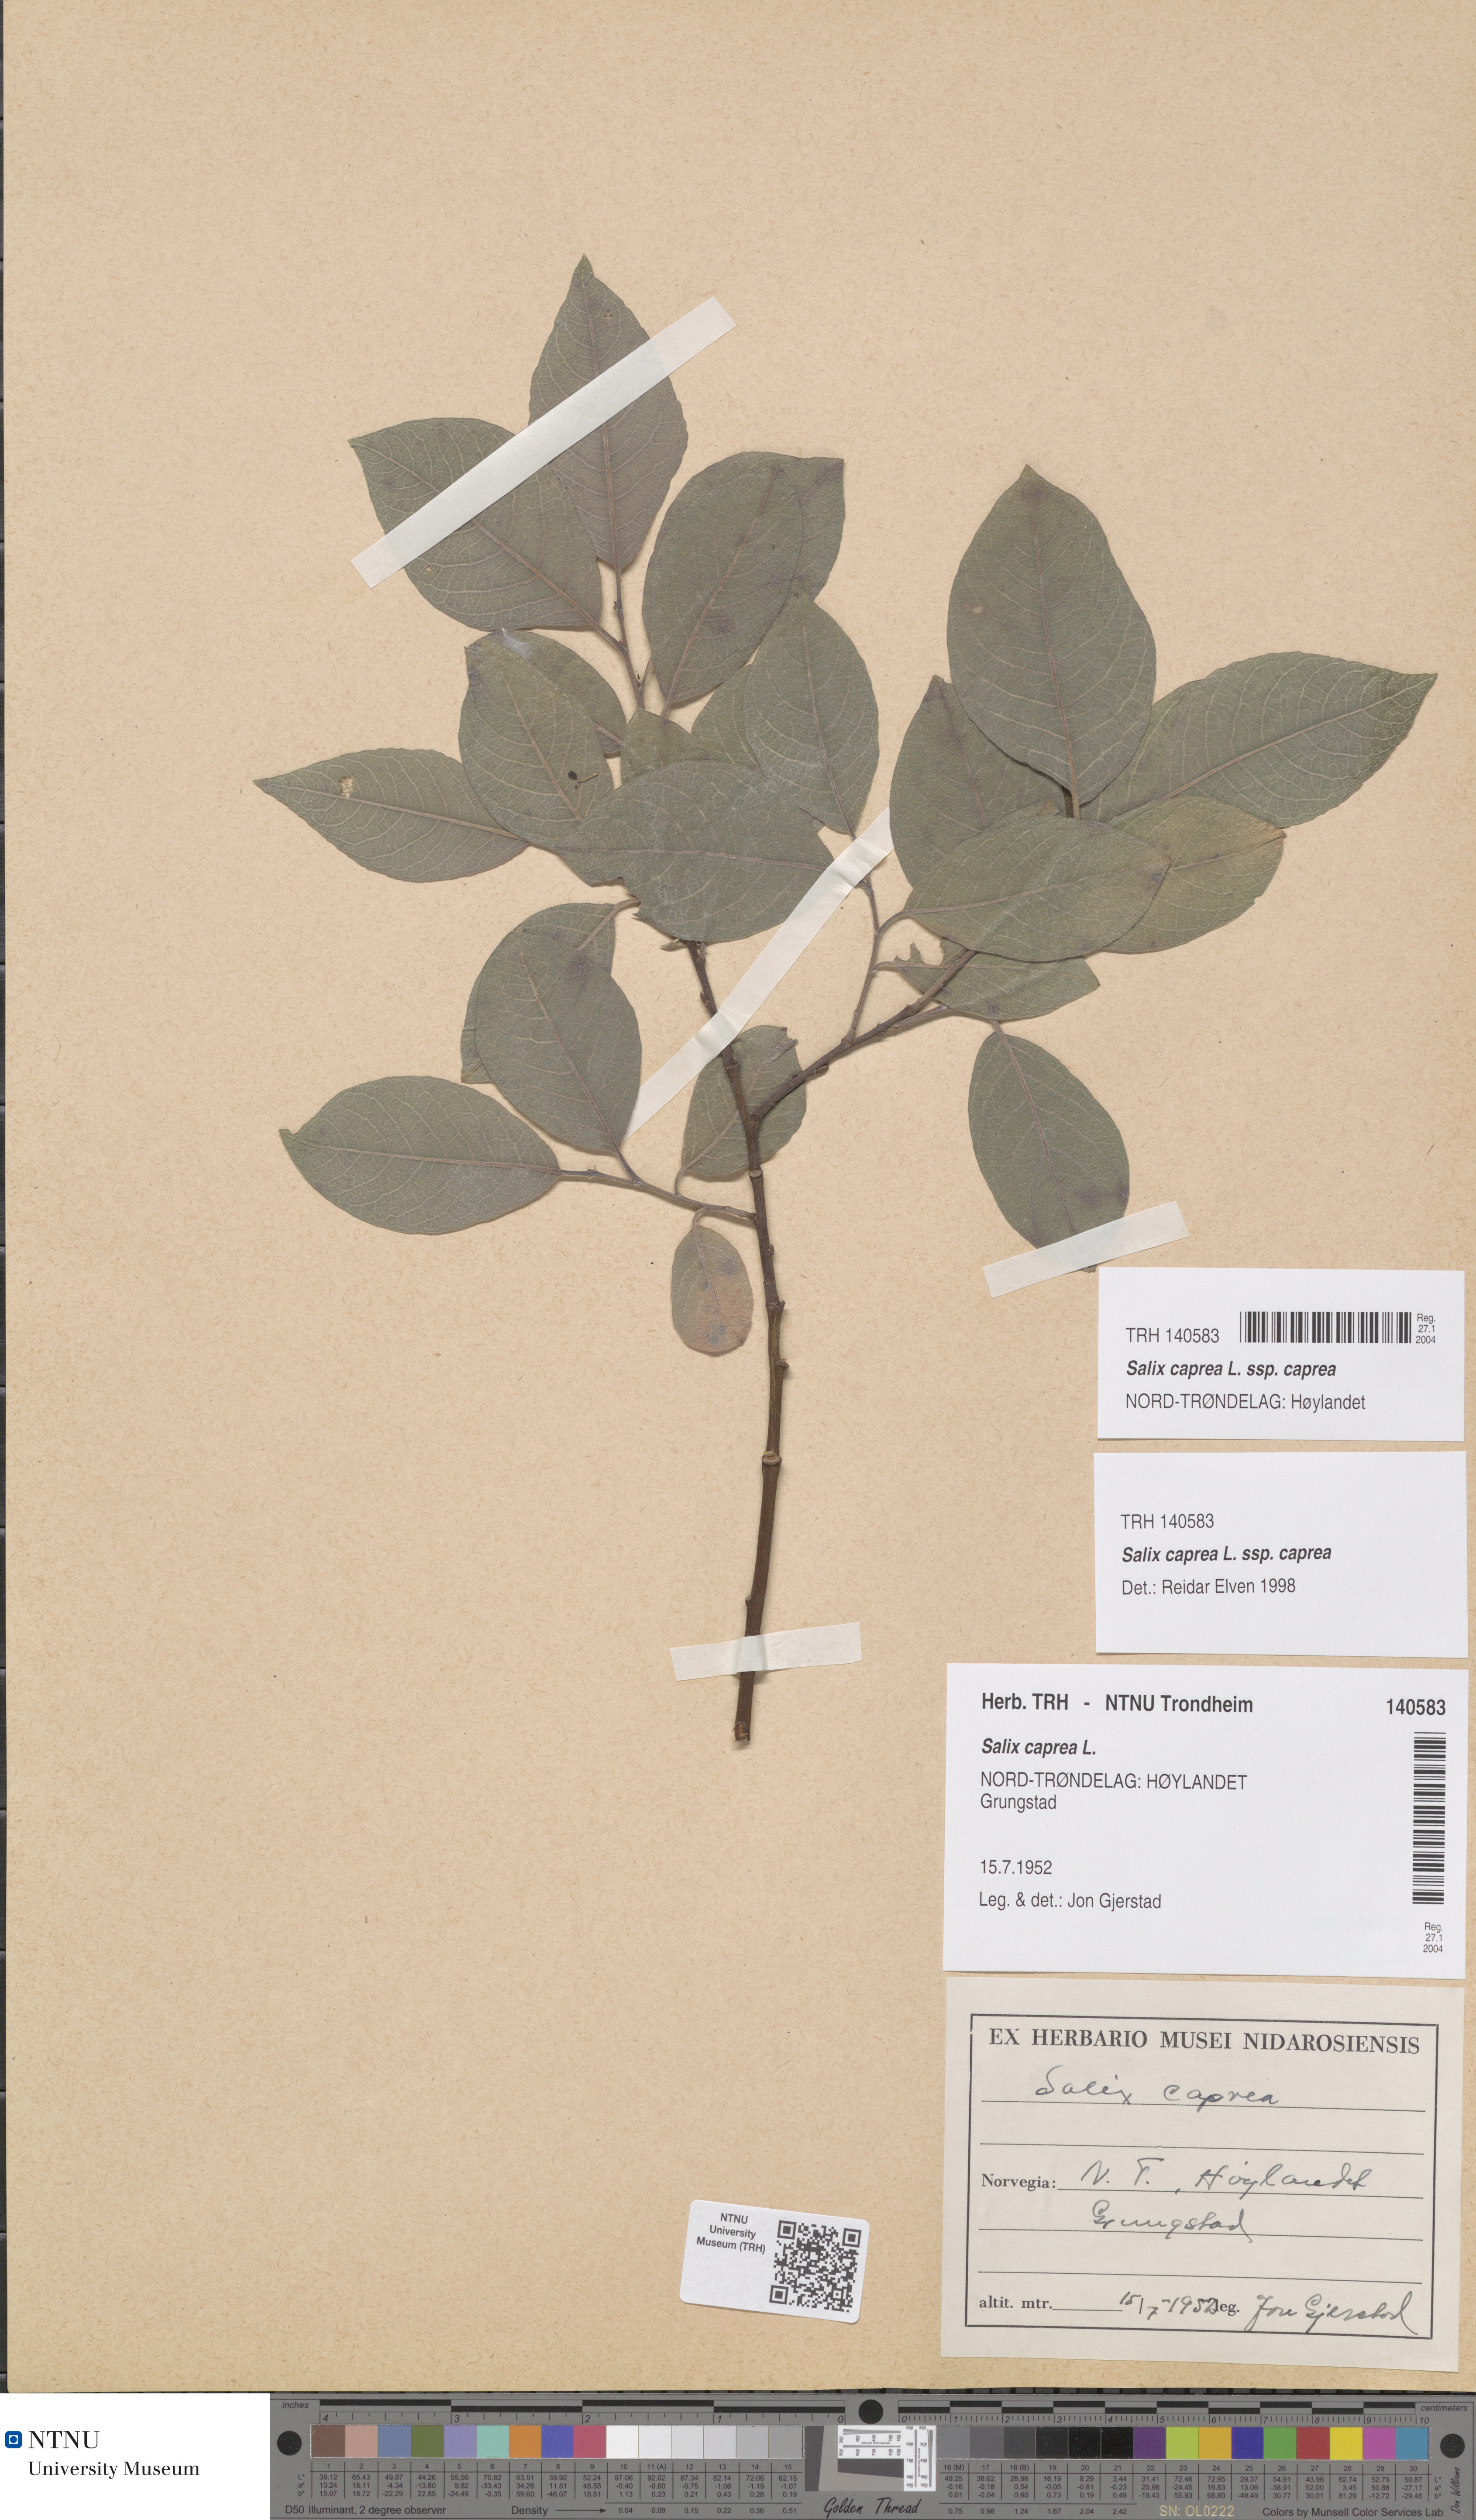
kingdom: Plantae
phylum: Tracheophyta
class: Magnoliopsida
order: Malpighiales
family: Salicaceae
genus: Salix
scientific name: Salix caprea
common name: Goat willow
